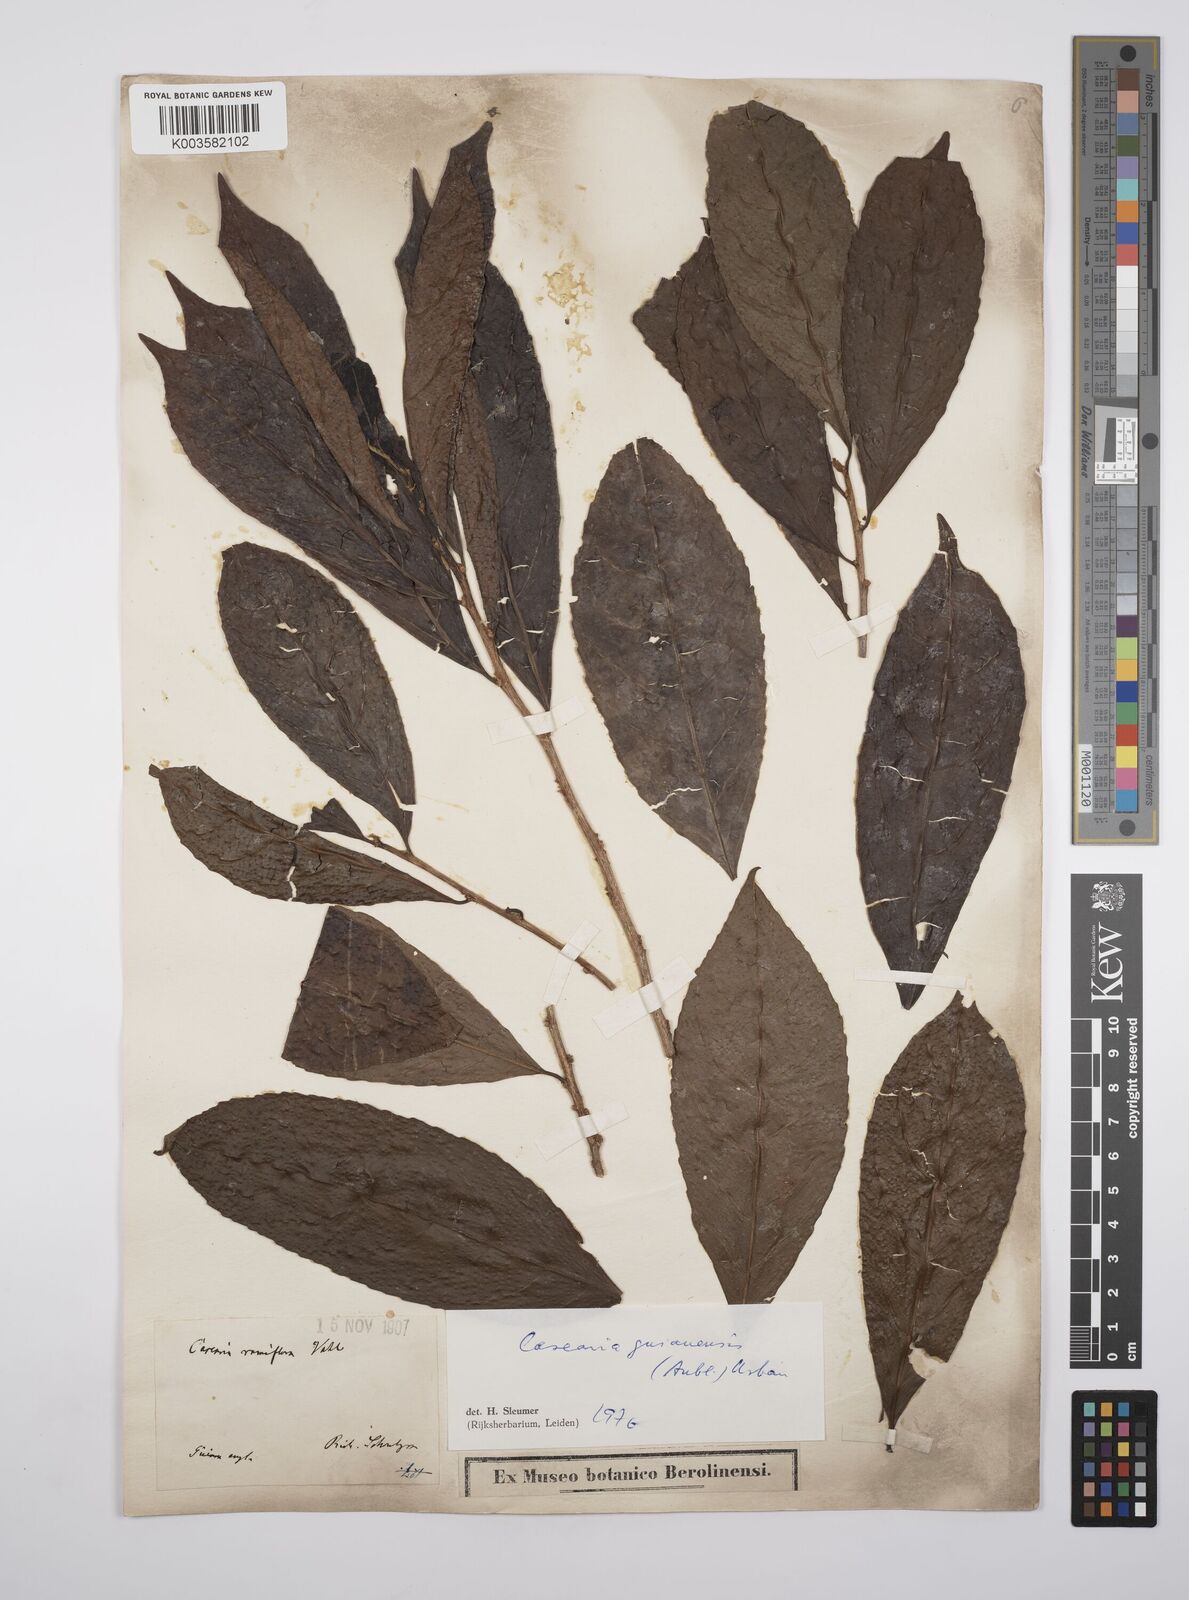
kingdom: Plantae
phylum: Tracheophyta
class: Magnoliopsida
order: Malpighiales
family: Salicaceae
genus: Casearia
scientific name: Casearia guianensis
